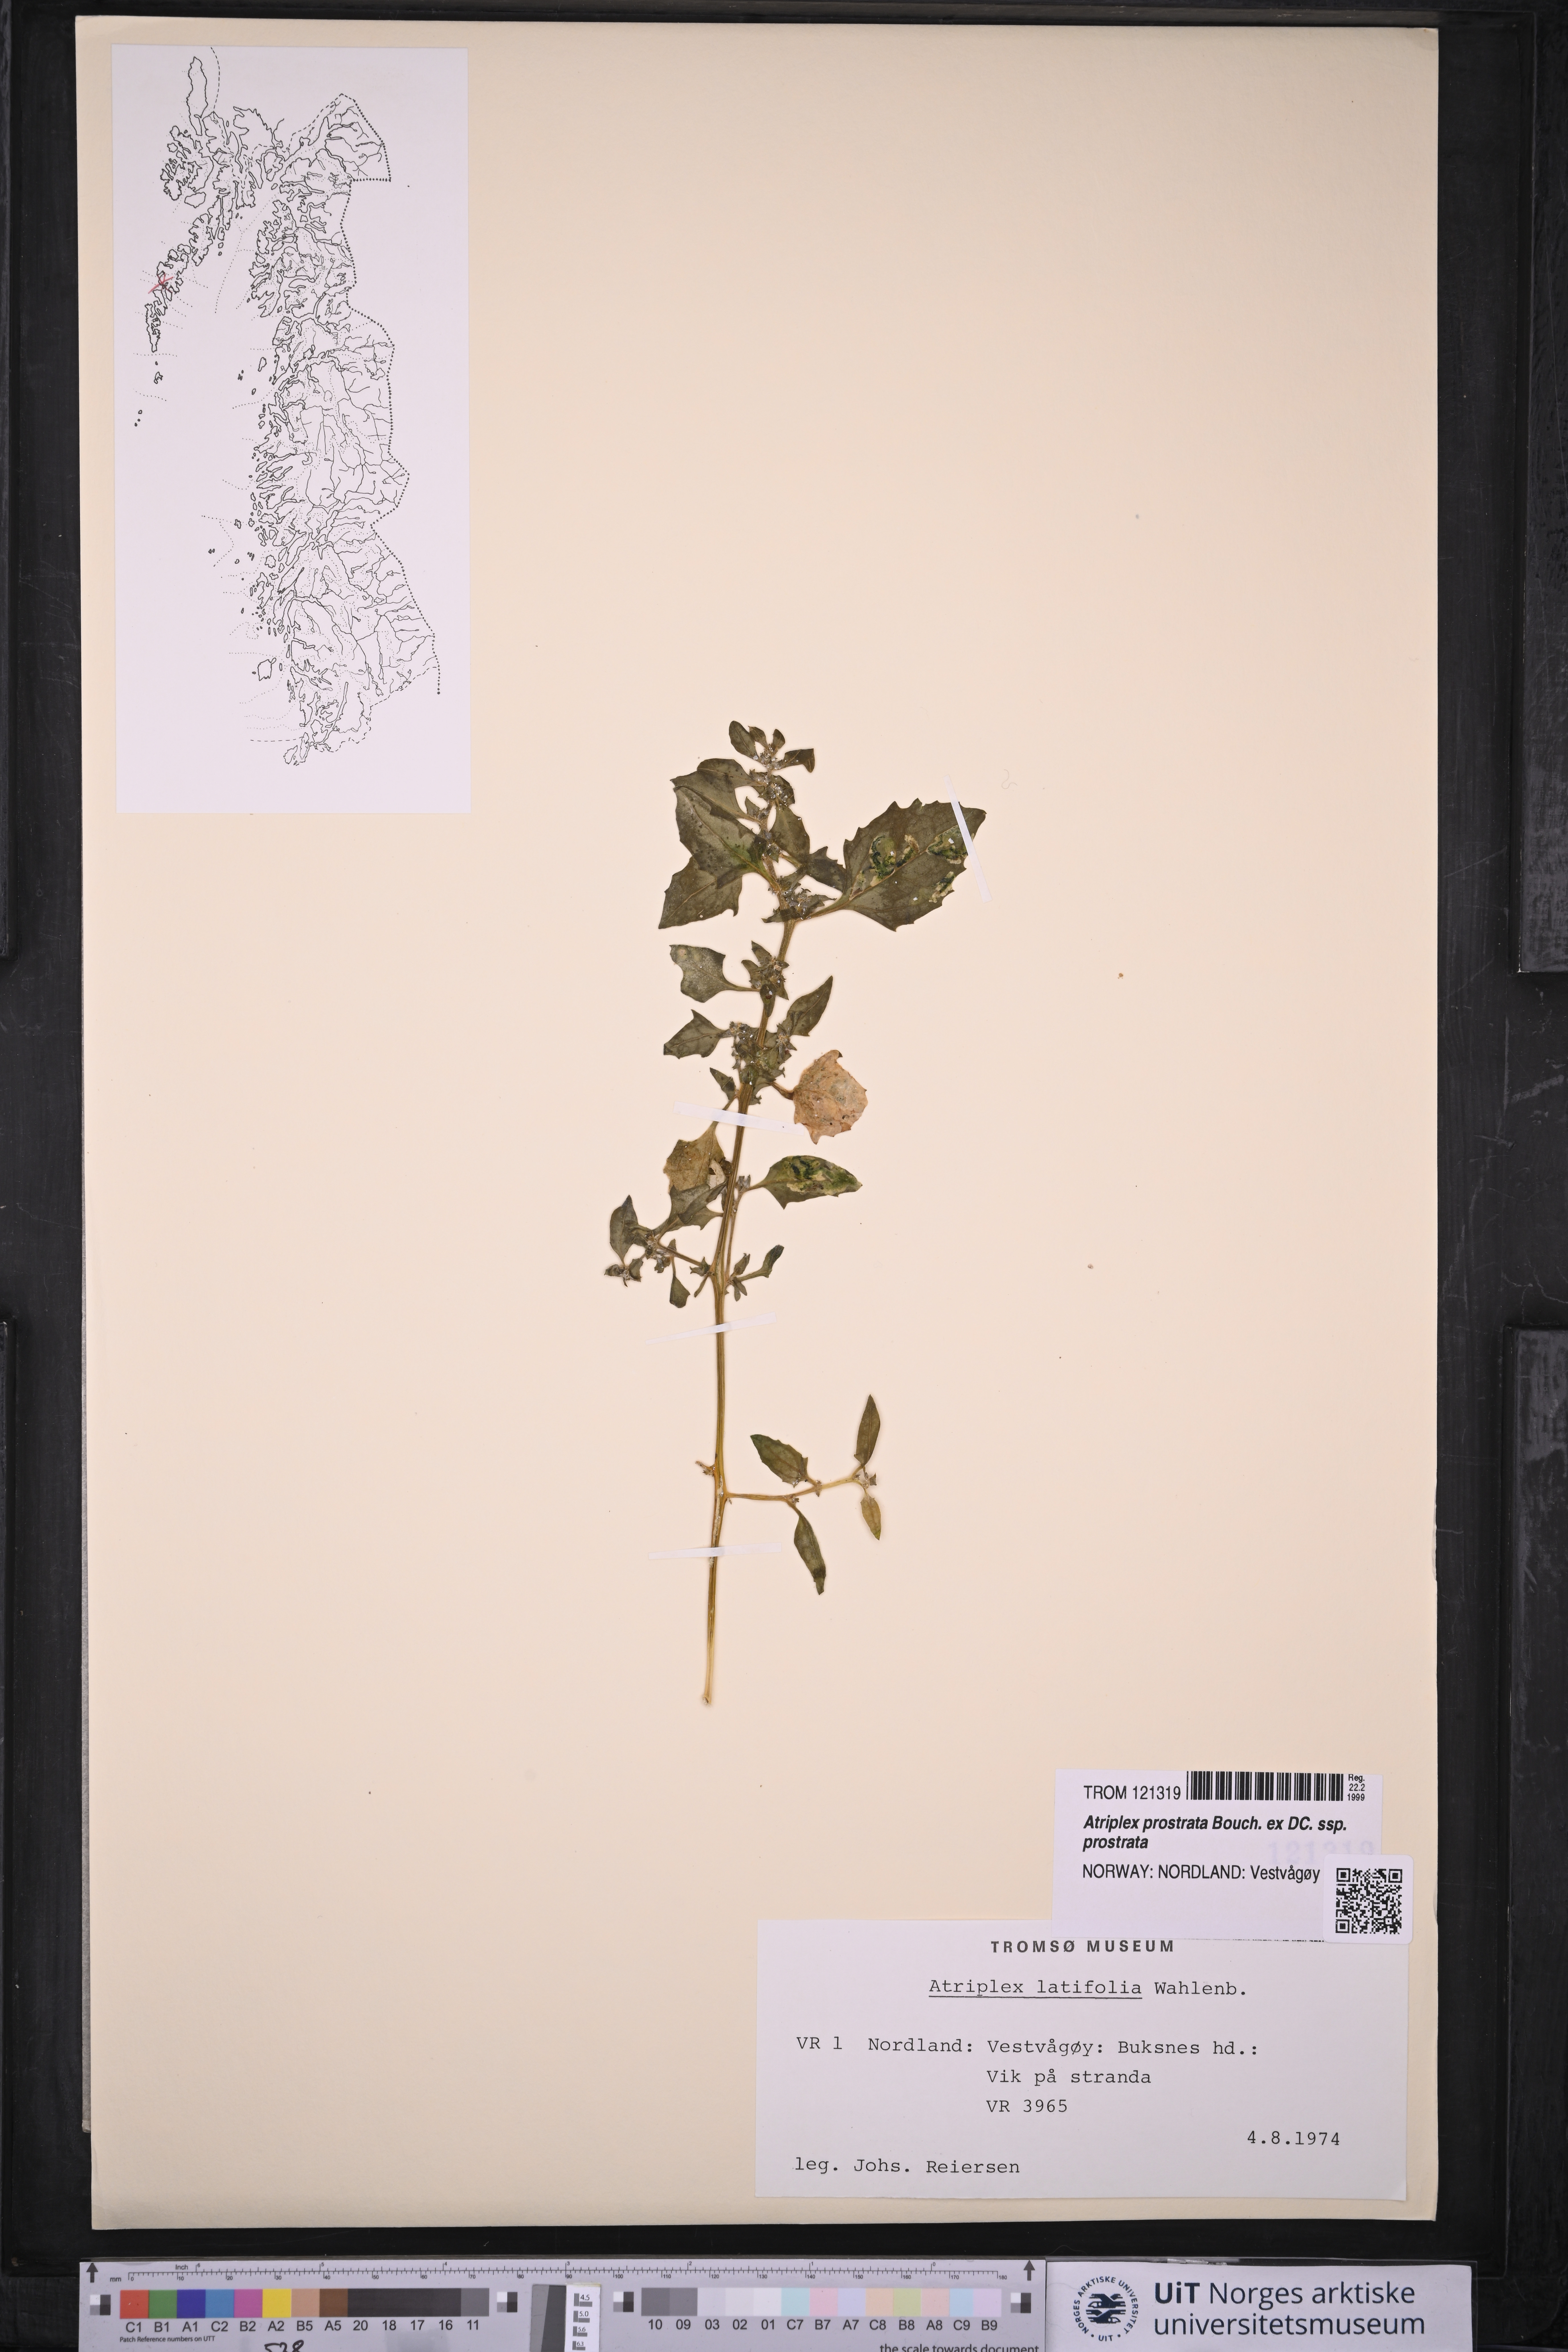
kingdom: Plantae
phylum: Tracheophyta
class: Magnoliopsida
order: Caryophyllales
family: Amaranthaceae
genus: Atriplex
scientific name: Atriplex prostrata
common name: Spear-leaved orache
